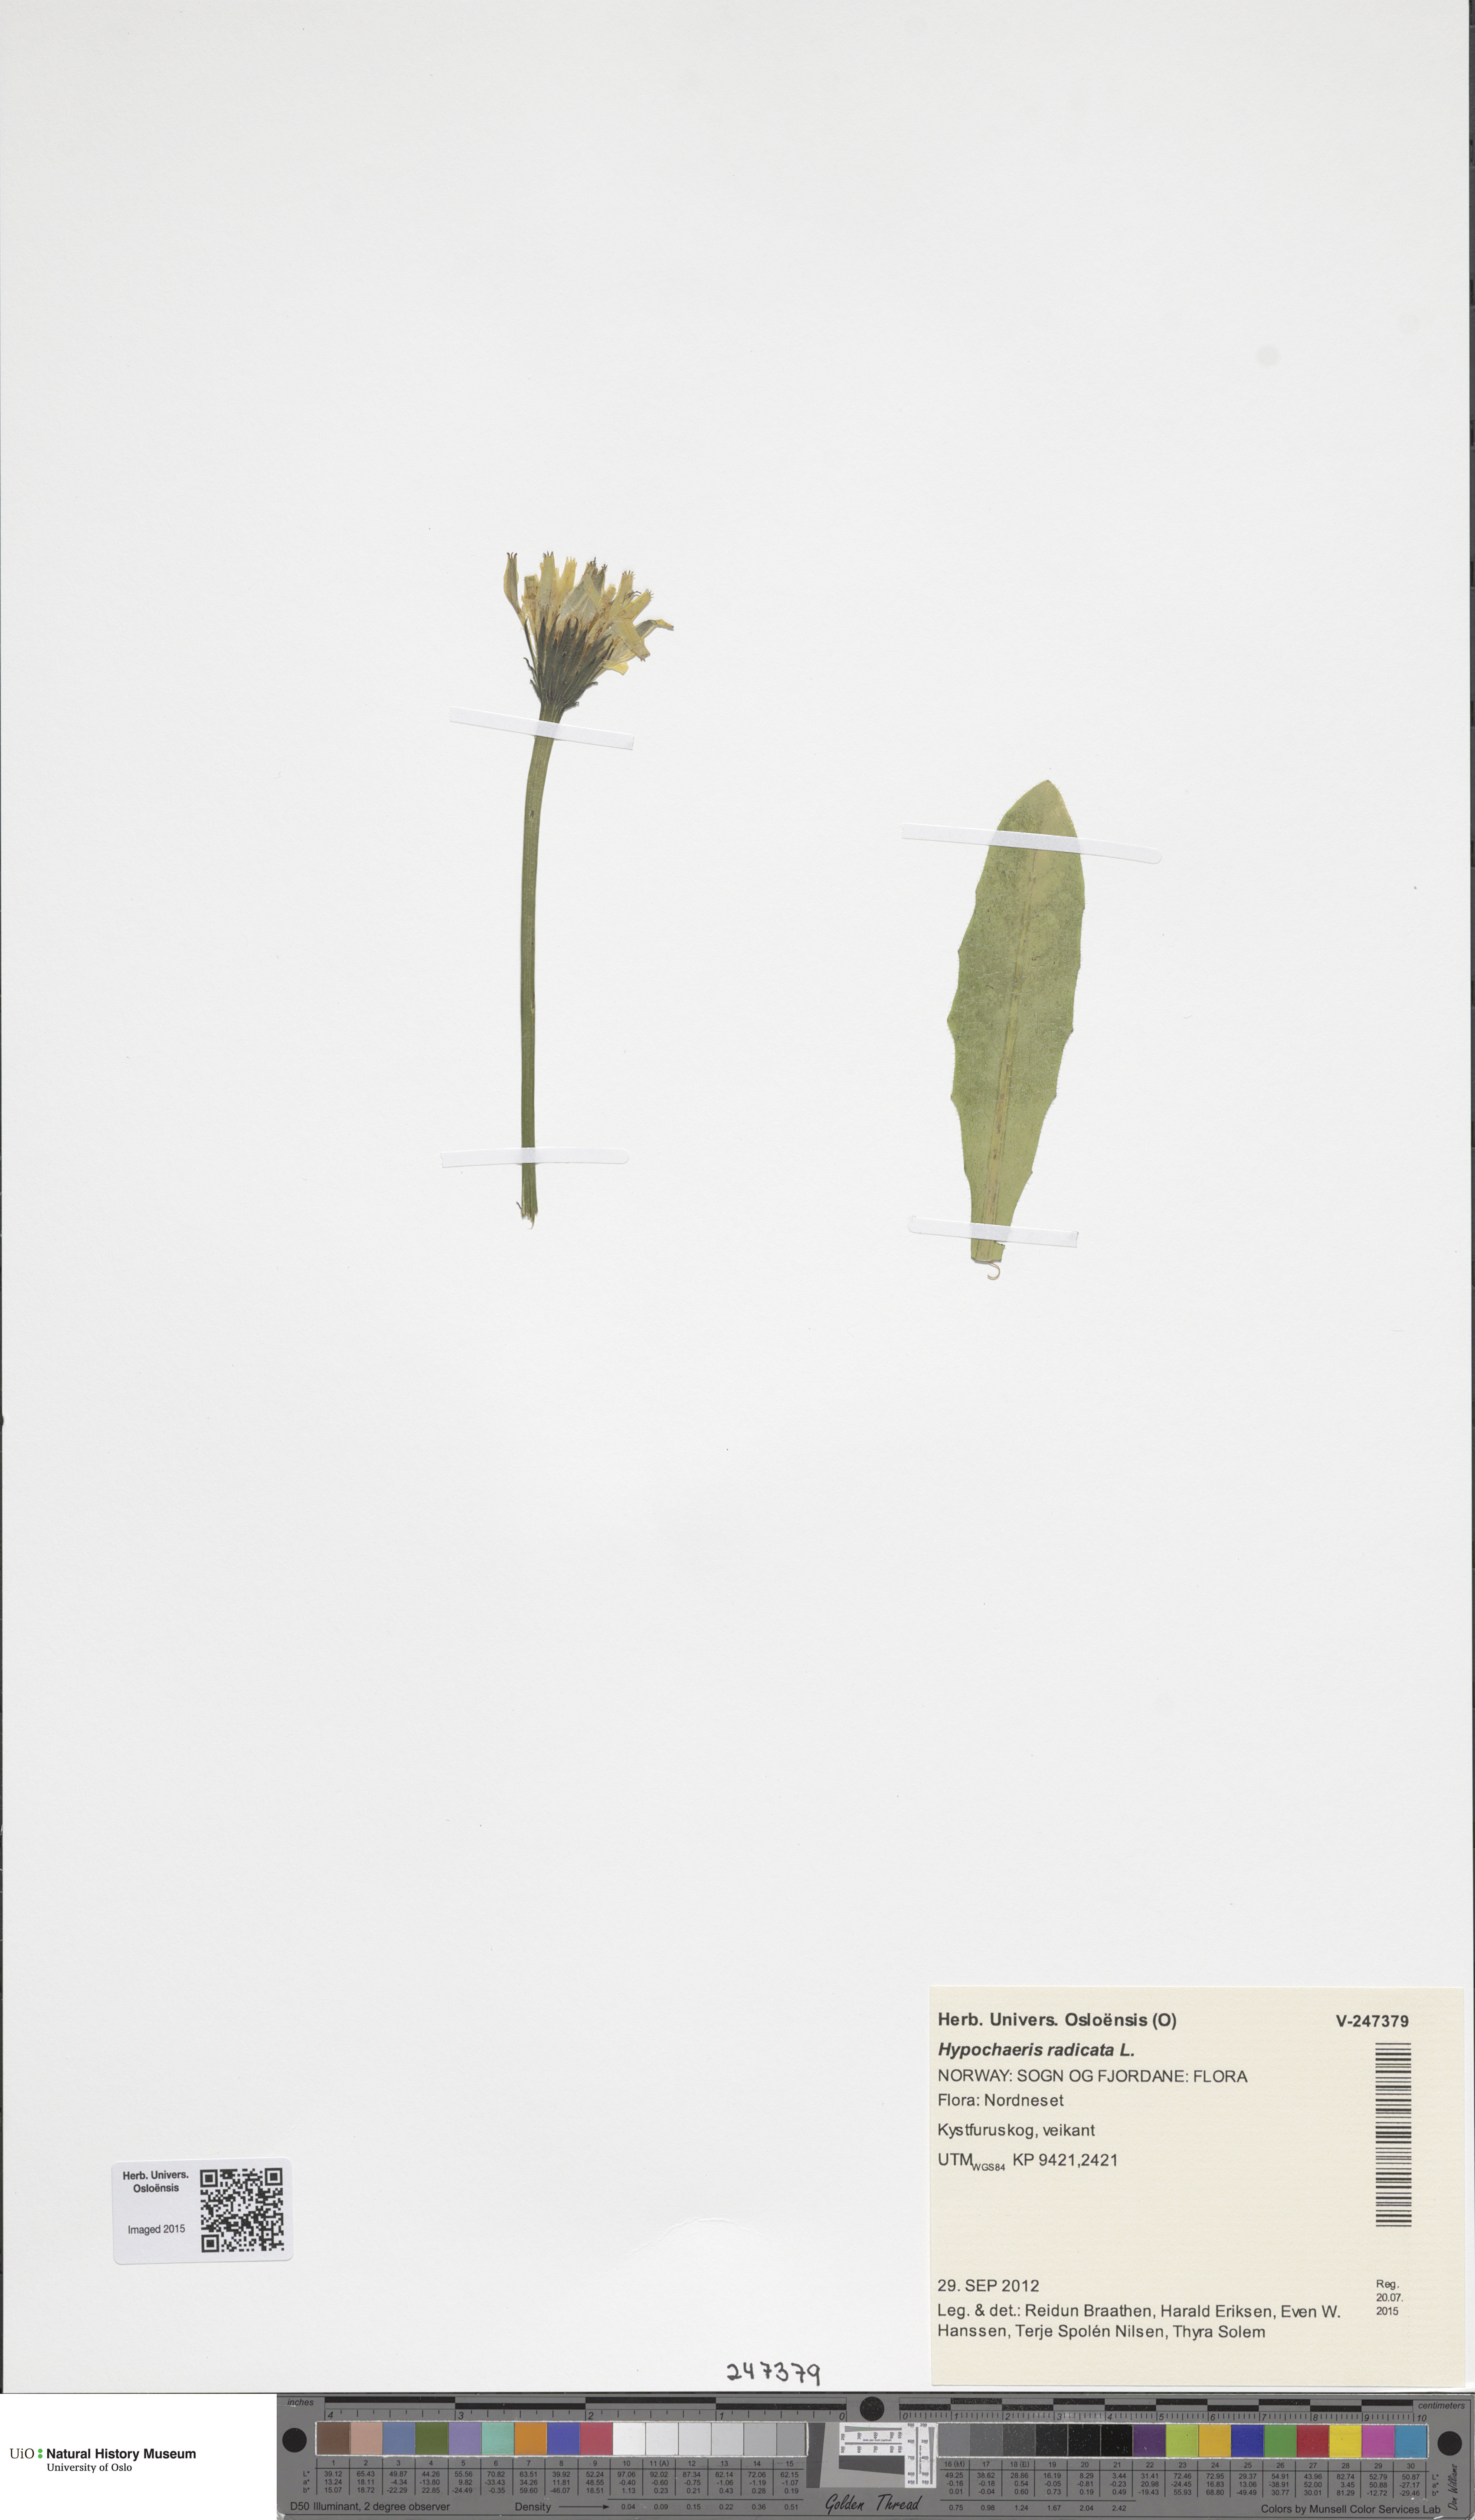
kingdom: Plantae
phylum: Tracheophyta
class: Magnoliopsida
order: Asterales
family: Asteraceae
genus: Hypochaeris
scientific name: Hypochaeris radicata
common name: Flatweed
